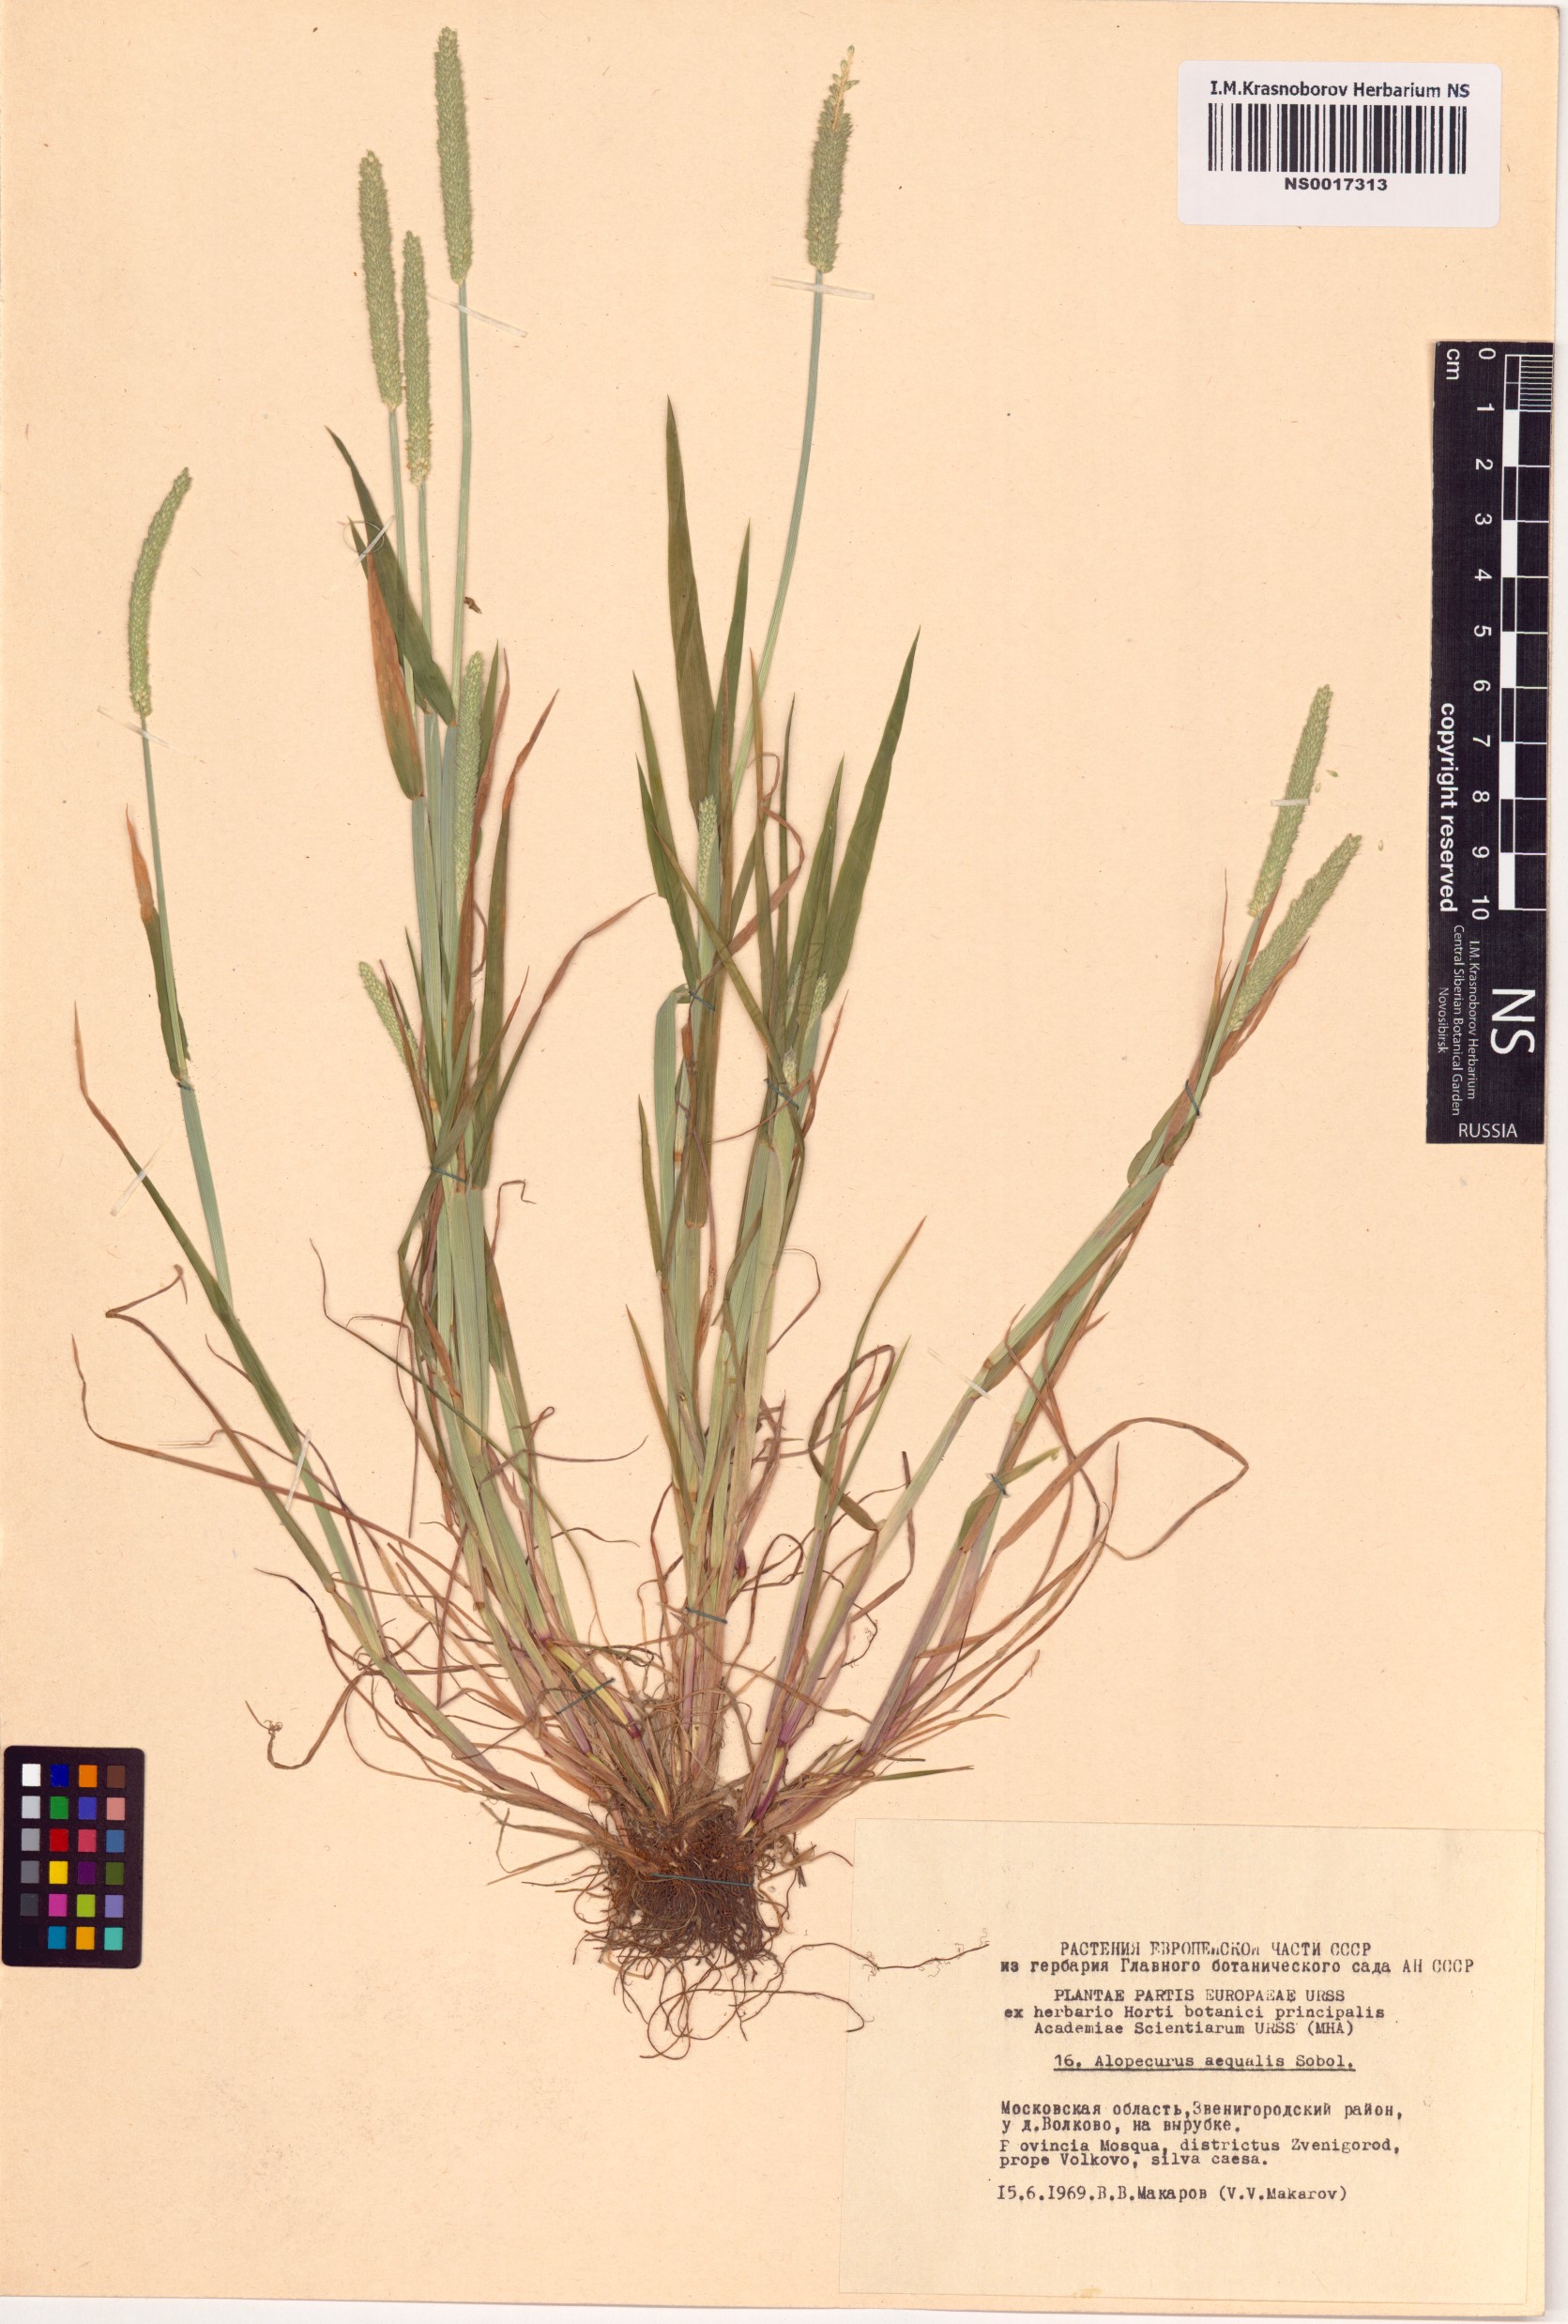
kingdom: Plantae
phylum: Tracheophyta
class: Liliopsida
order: Poales
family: Poaceae
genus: Alopecurus
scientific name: Alopecurus aequalis
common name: Orange foxtail
